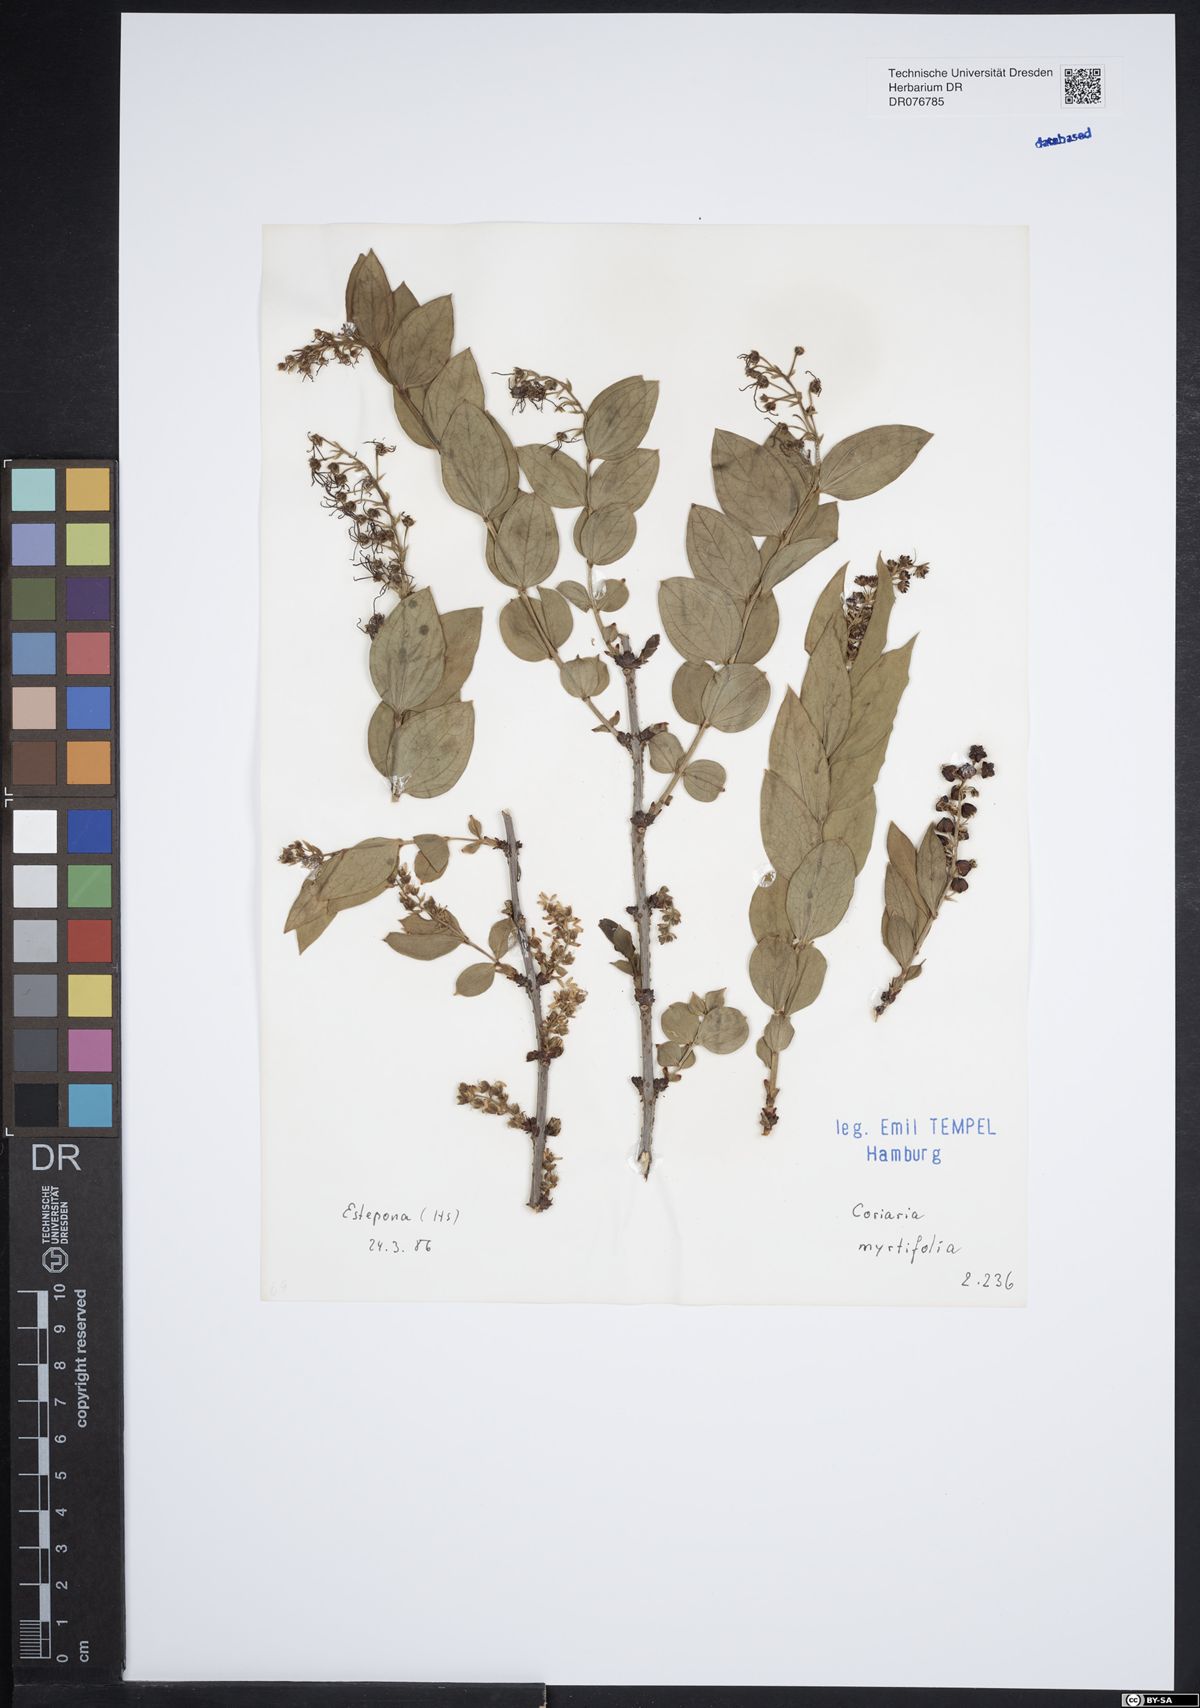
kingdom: Plantae
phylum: Tracheophyta
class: Magnoliopsida
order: Cucurbitales
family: Coriariaceae
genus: Coriaria
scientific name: Coriaria myrtifolia
